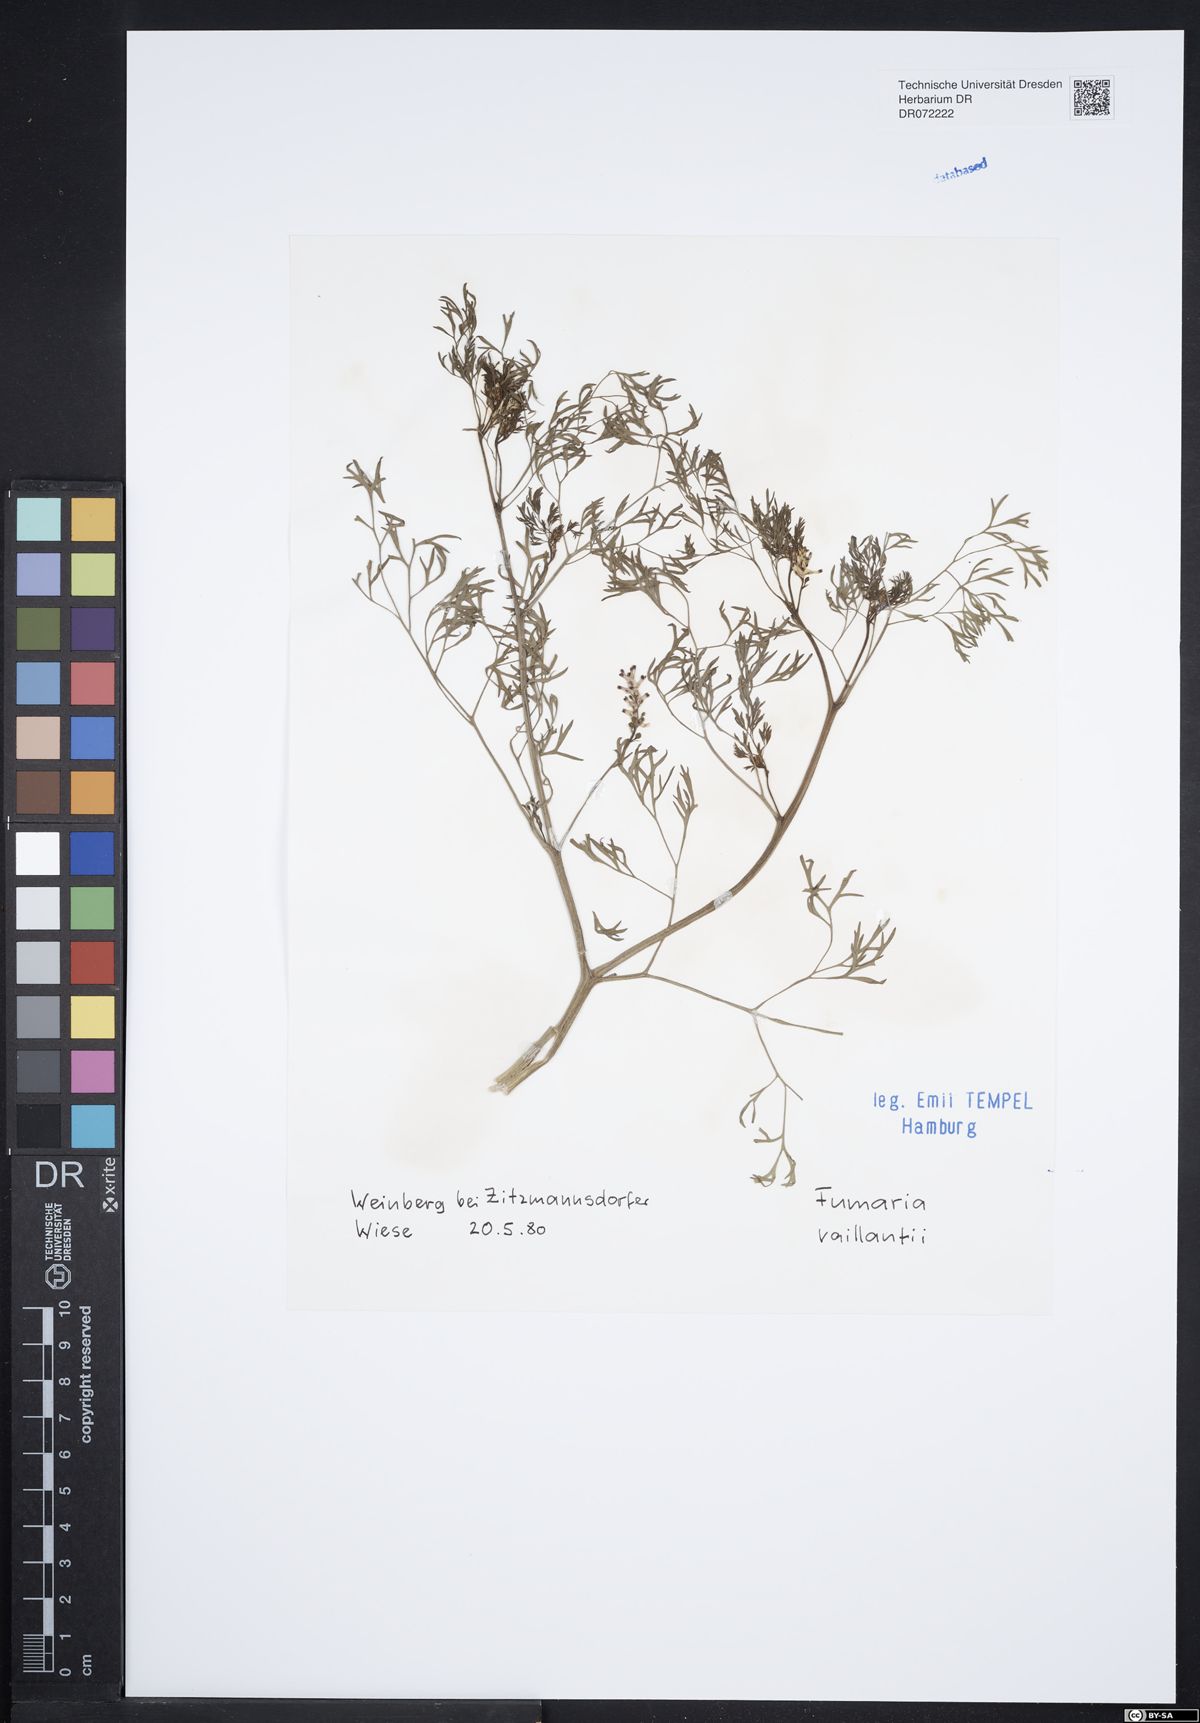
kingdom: Plantae
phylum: Tracheophyta
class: Magnoliopsida
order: Ranunculales
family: Papaveraceae
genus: Fumaria
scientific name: Fumaria vaillantii
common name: Few-flowered fumitory
